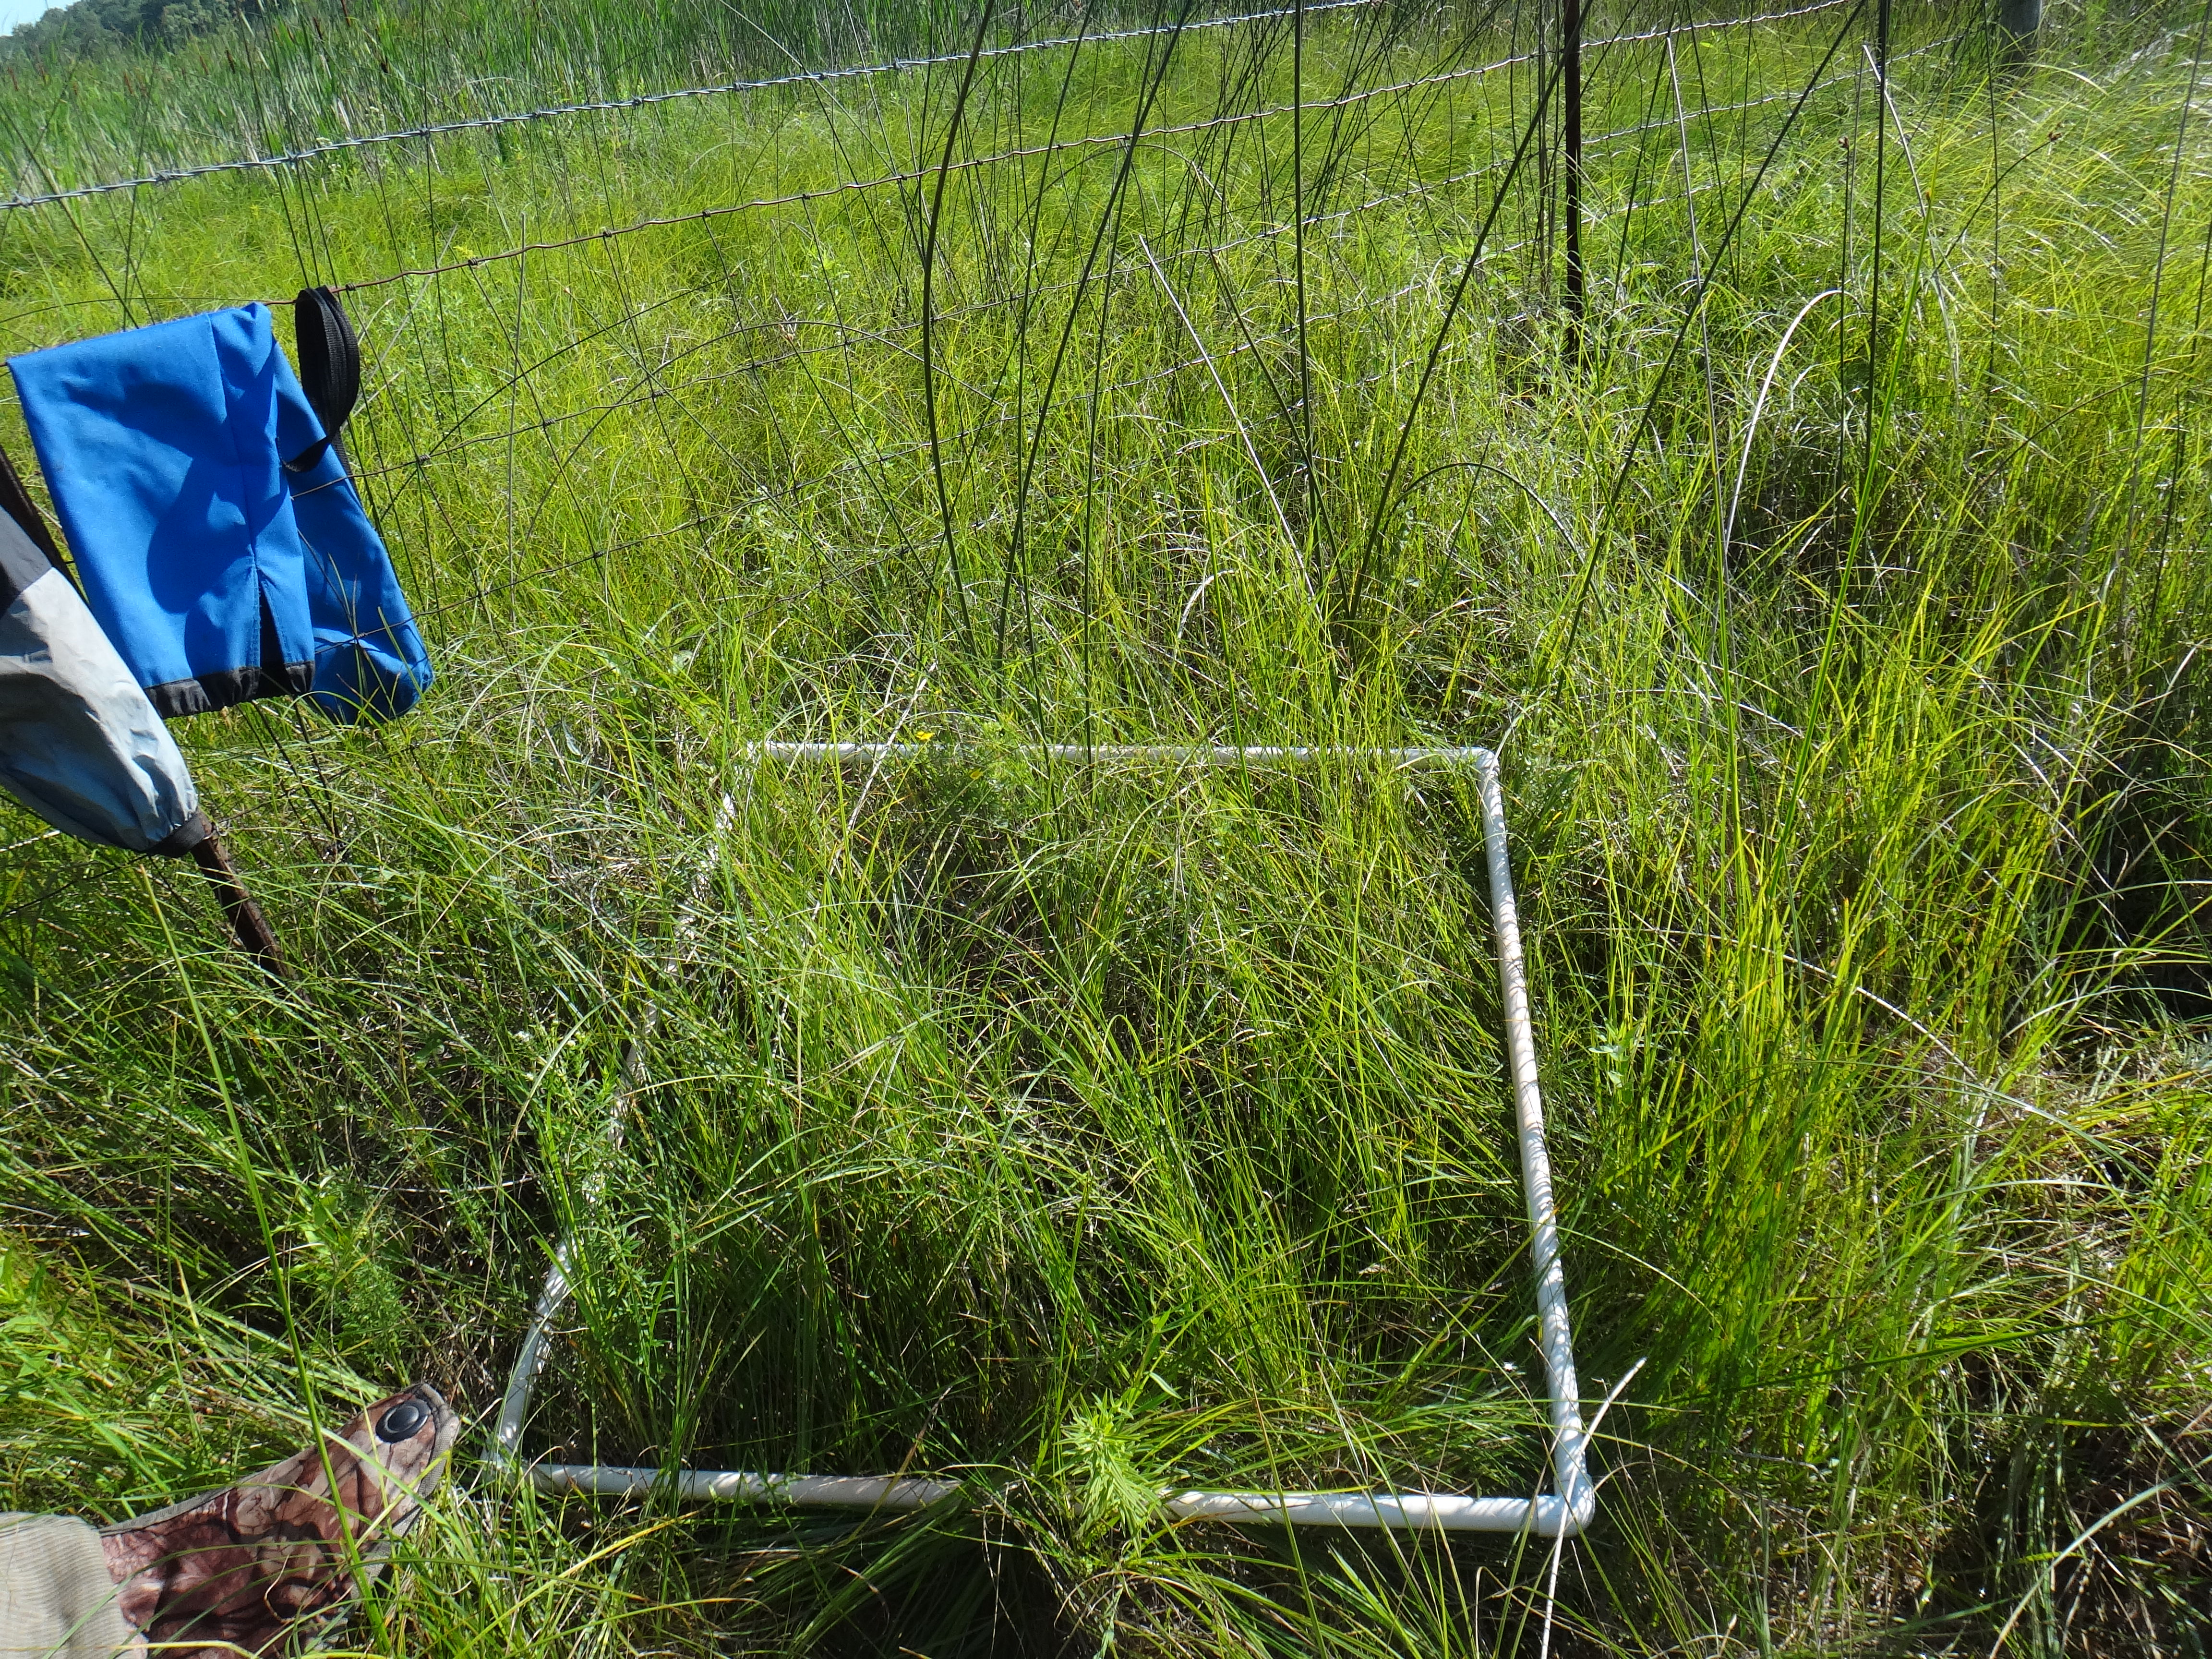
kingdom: Plantae
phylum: Tracheophyta
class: Liliopsida
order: Poales
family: Cyperaceae
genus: Schoenoplectus
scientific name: Schoenoplectus acutus
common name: Hardstem bulrush
